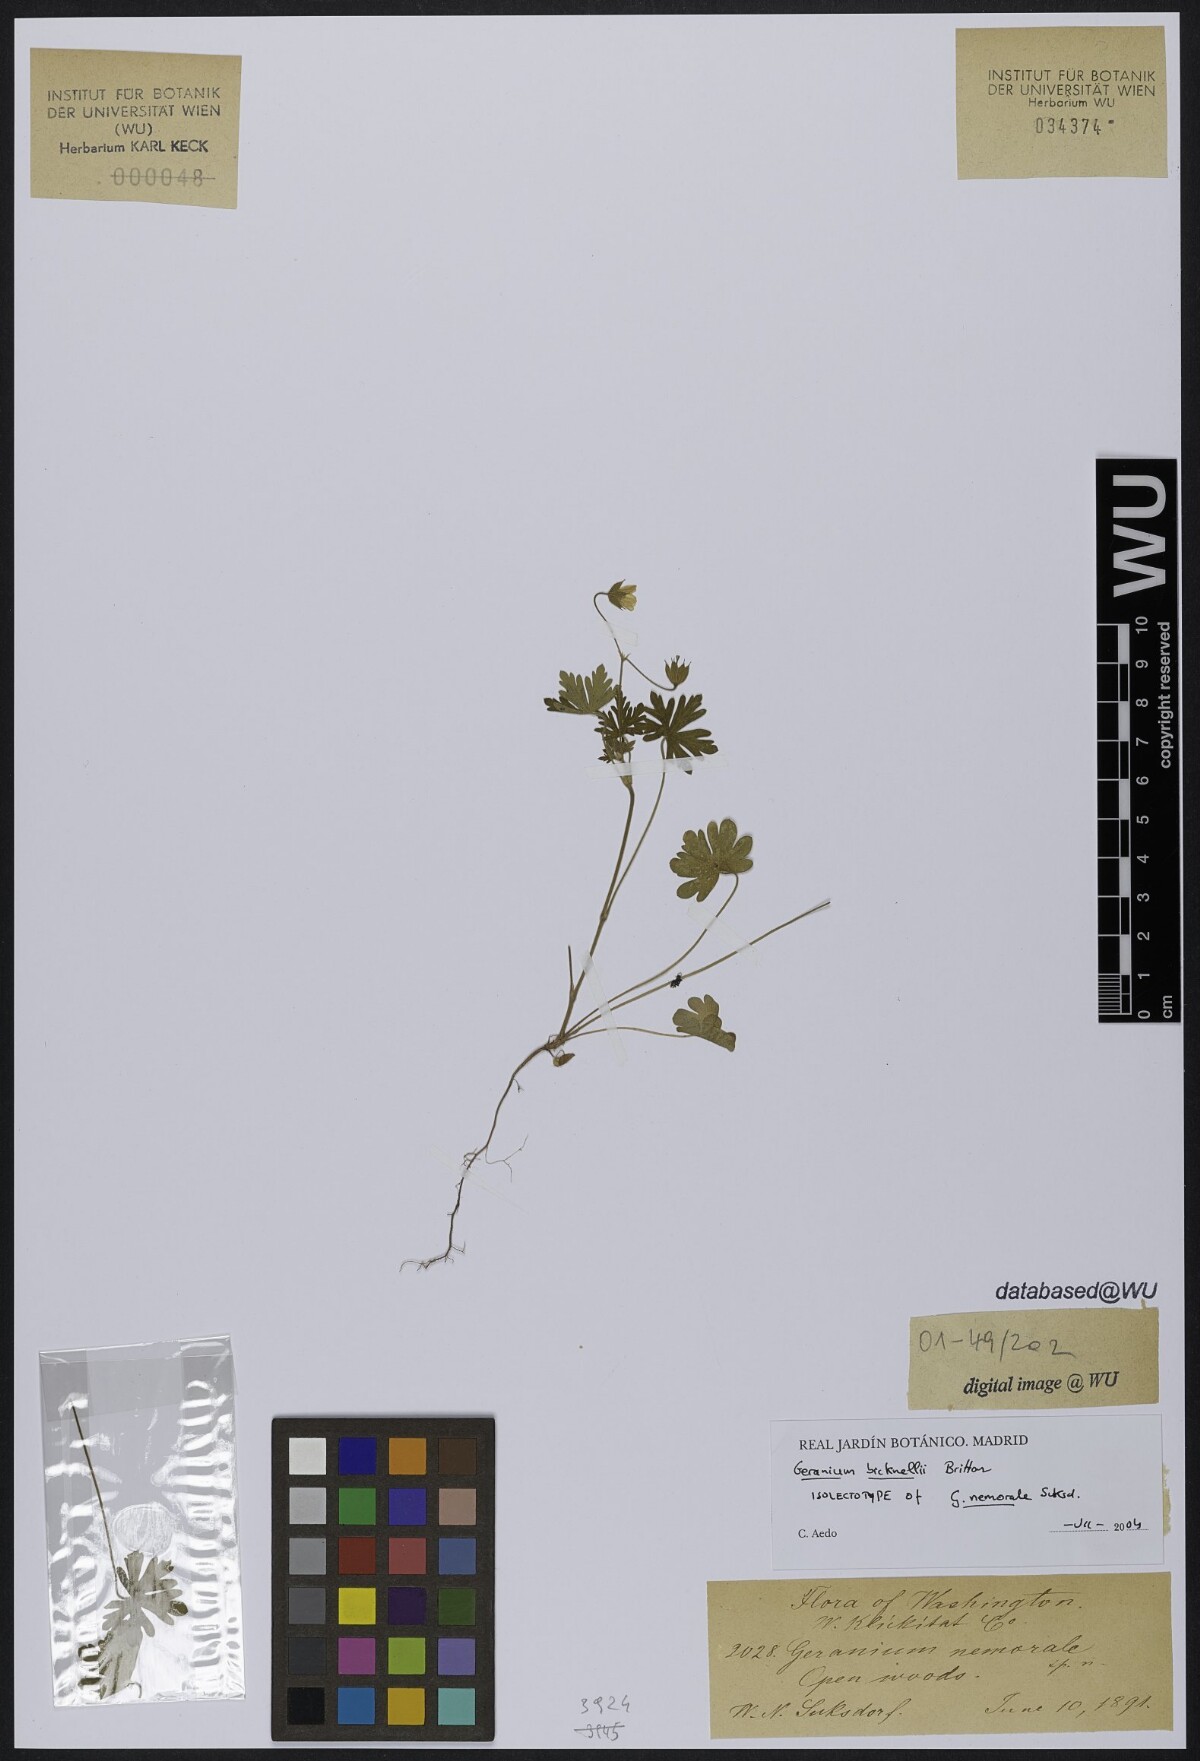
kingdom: Plantae
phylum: Tracheophyta
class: Magnoliopsida
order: Geraniales
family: Geraniaceae
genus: Geranium
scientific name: Geranium bicknellii
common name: Bicknell's cranesbill
